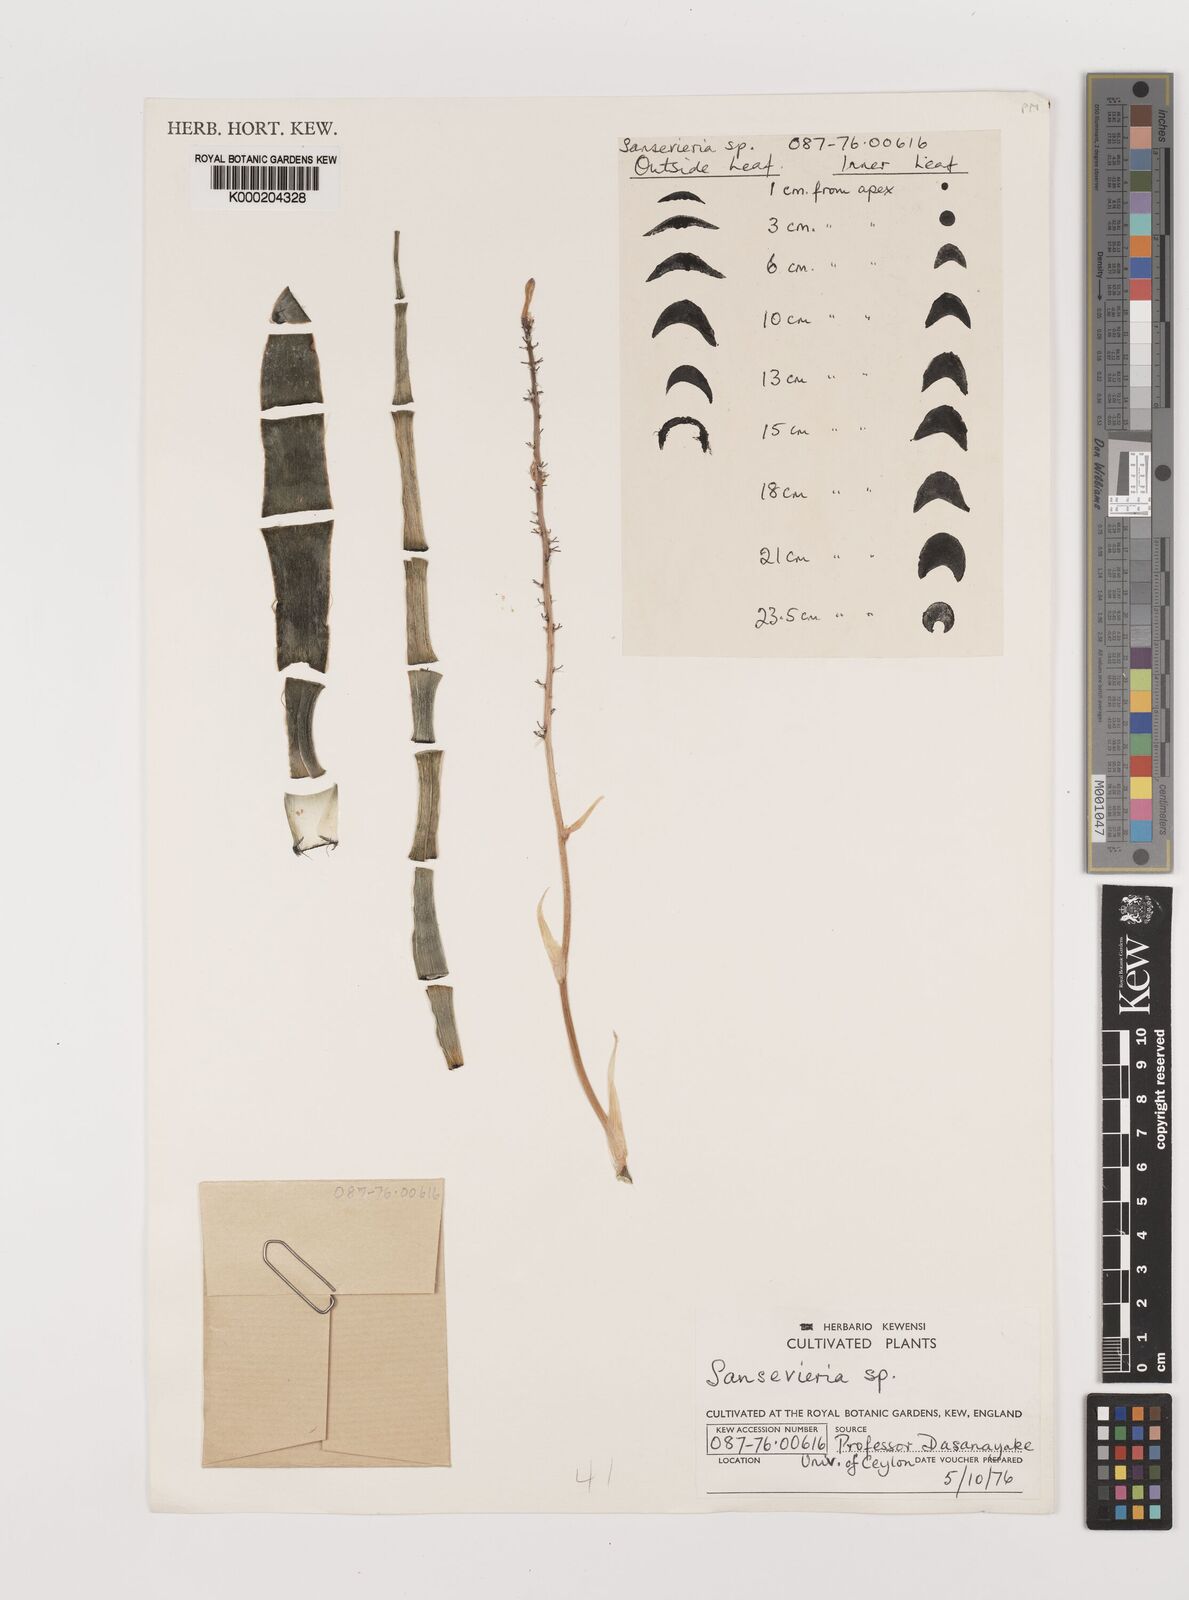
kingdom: Plantae
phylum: Tracheophyta
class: Liliopsida
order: Asparagales
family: Asparagaceae
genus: Dracaena
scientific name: Dracaena
